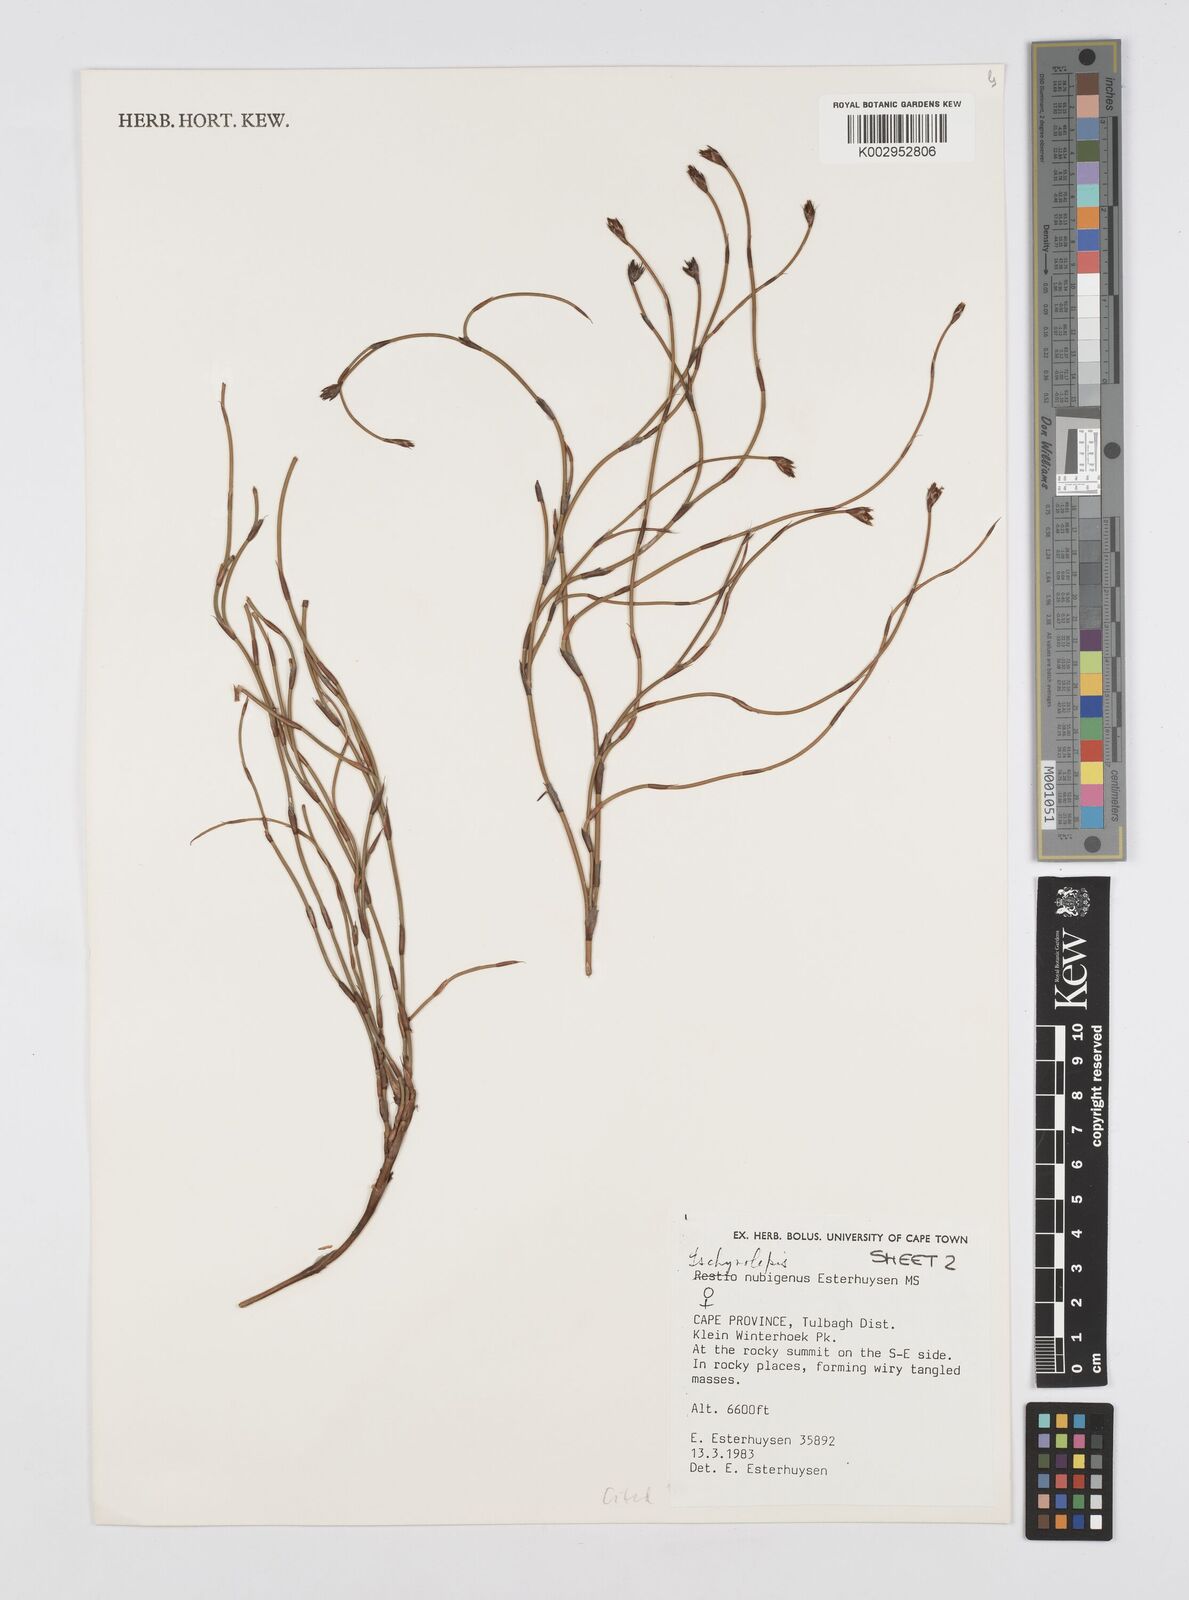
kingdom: Plantae
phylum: Tracheophyta
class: Liliopsida
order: Poales
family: Restionaceae
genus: Restio
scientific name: Restio nubigenus
